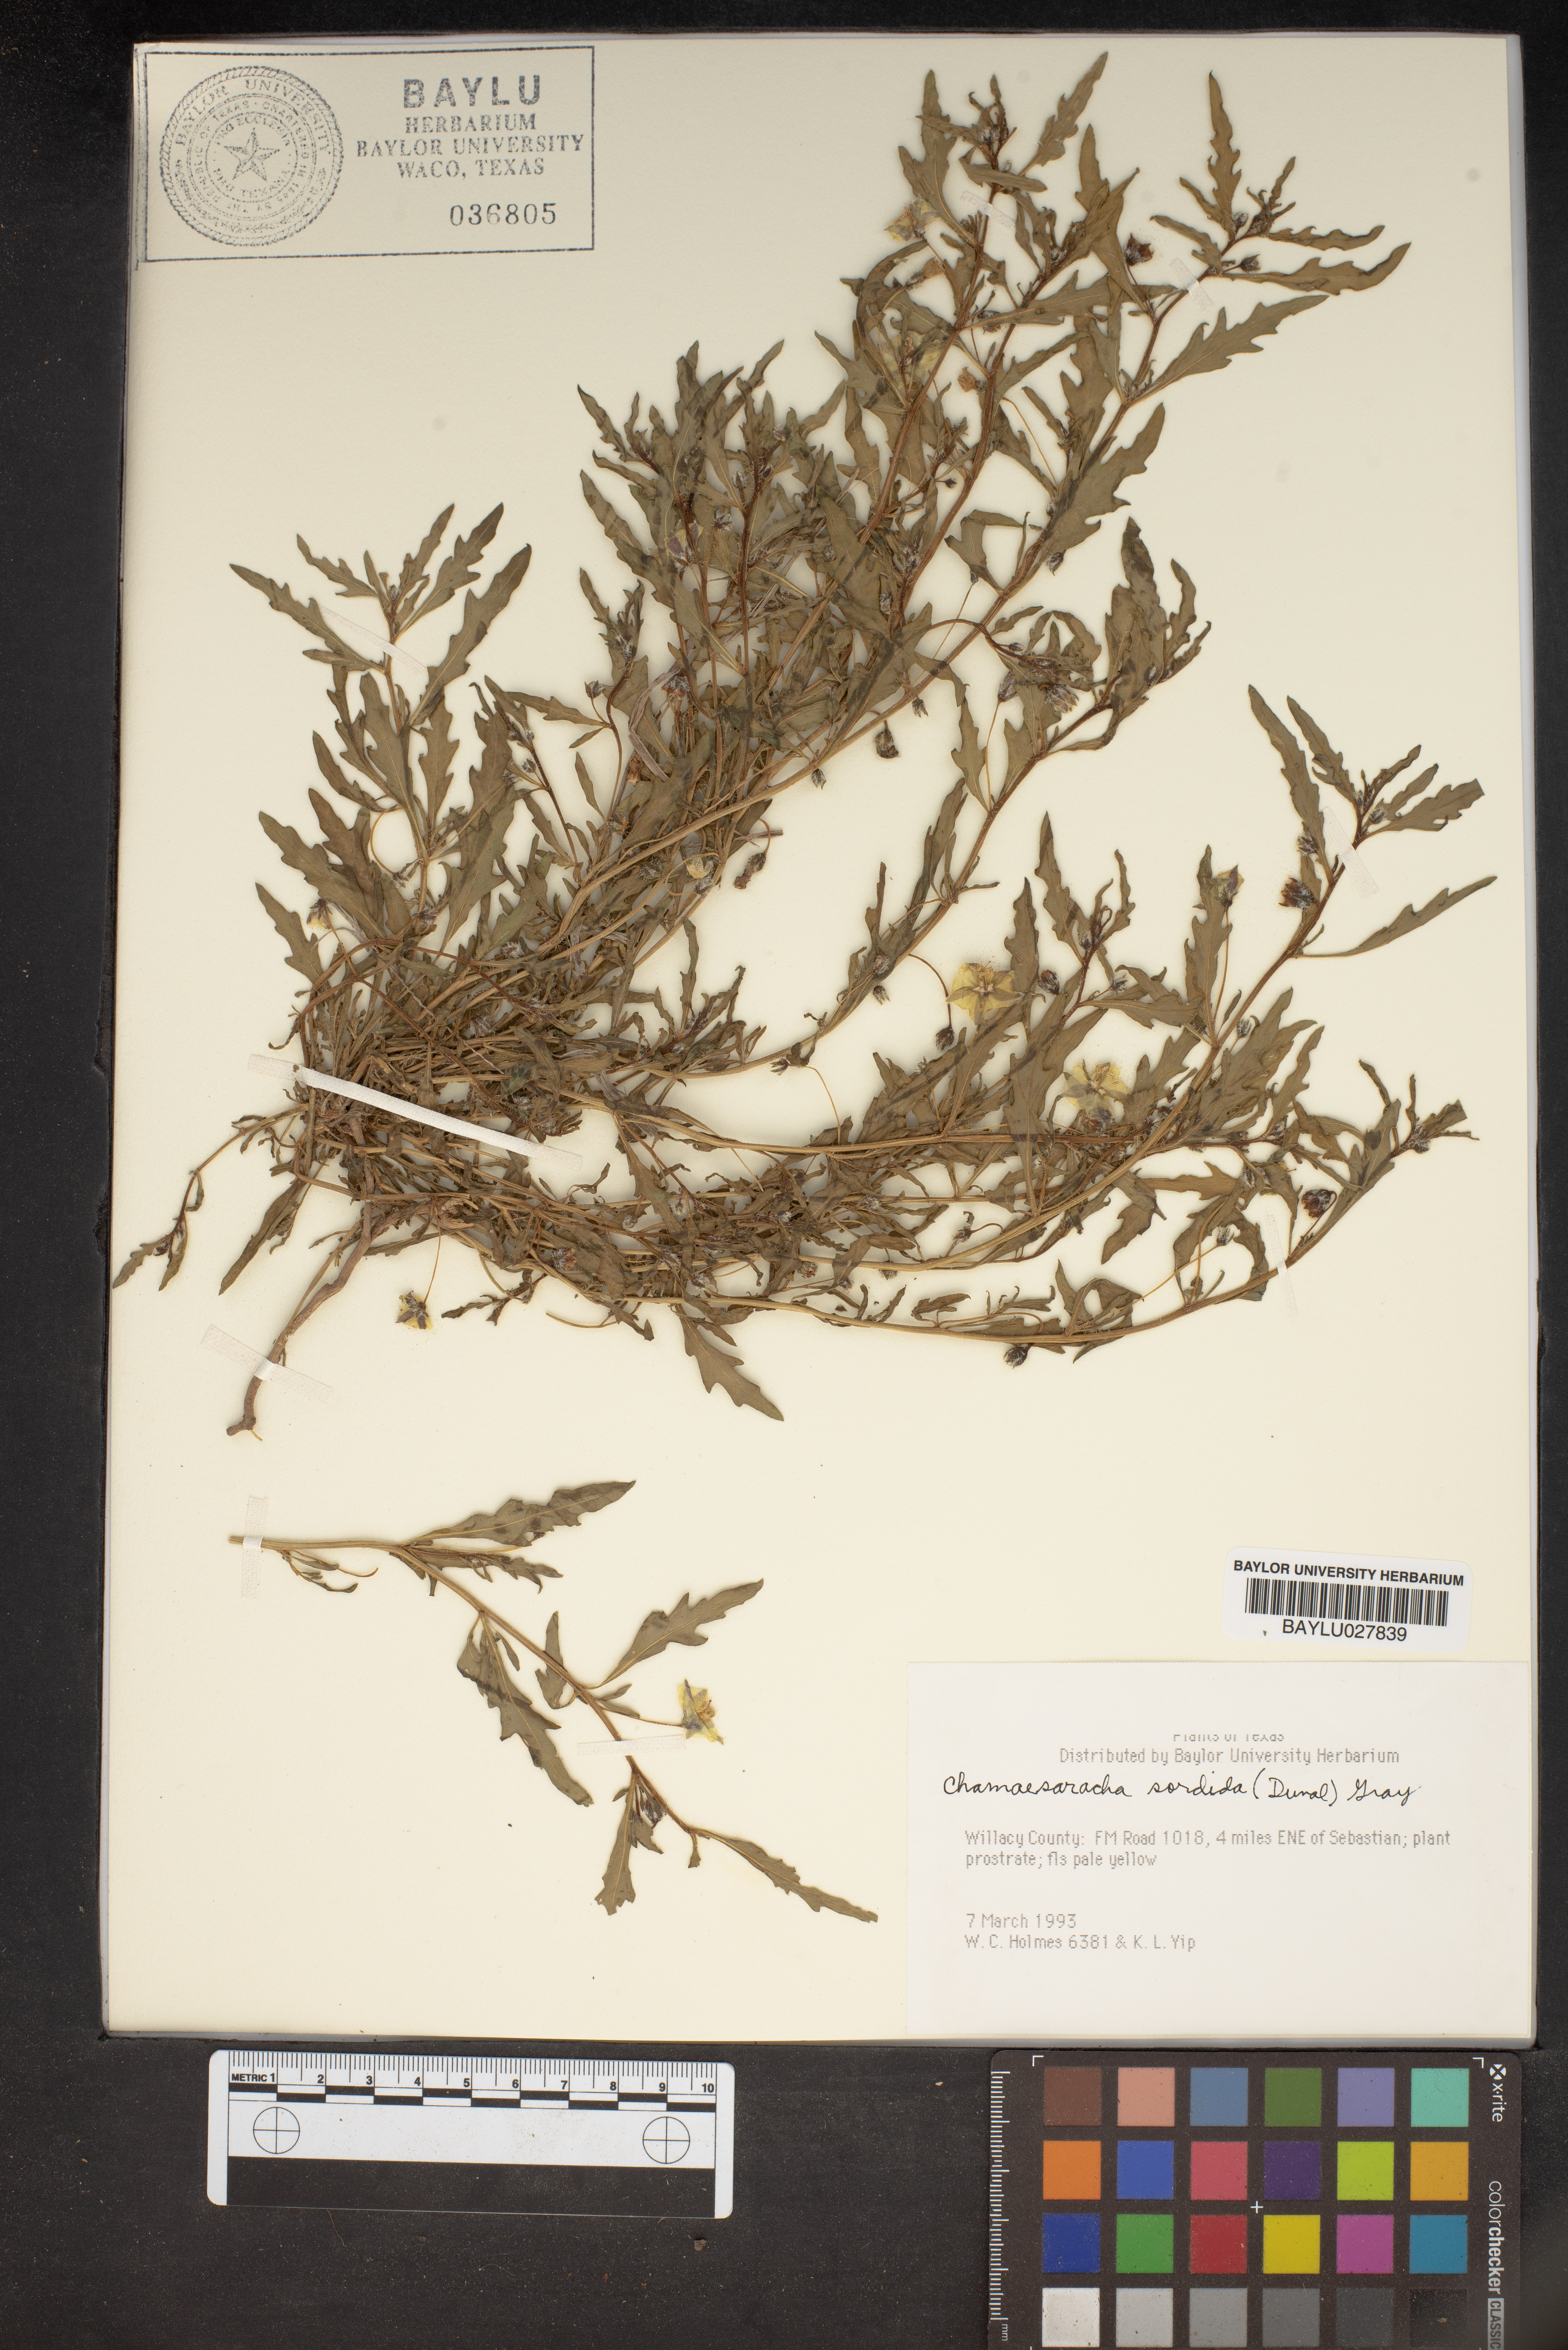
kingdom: Plantae
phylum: Tracheophyta
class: Magnoliopsida
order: Solanales
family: Solanaceae
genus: Chamaesaracha
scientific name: Chamaesaracha sordida
